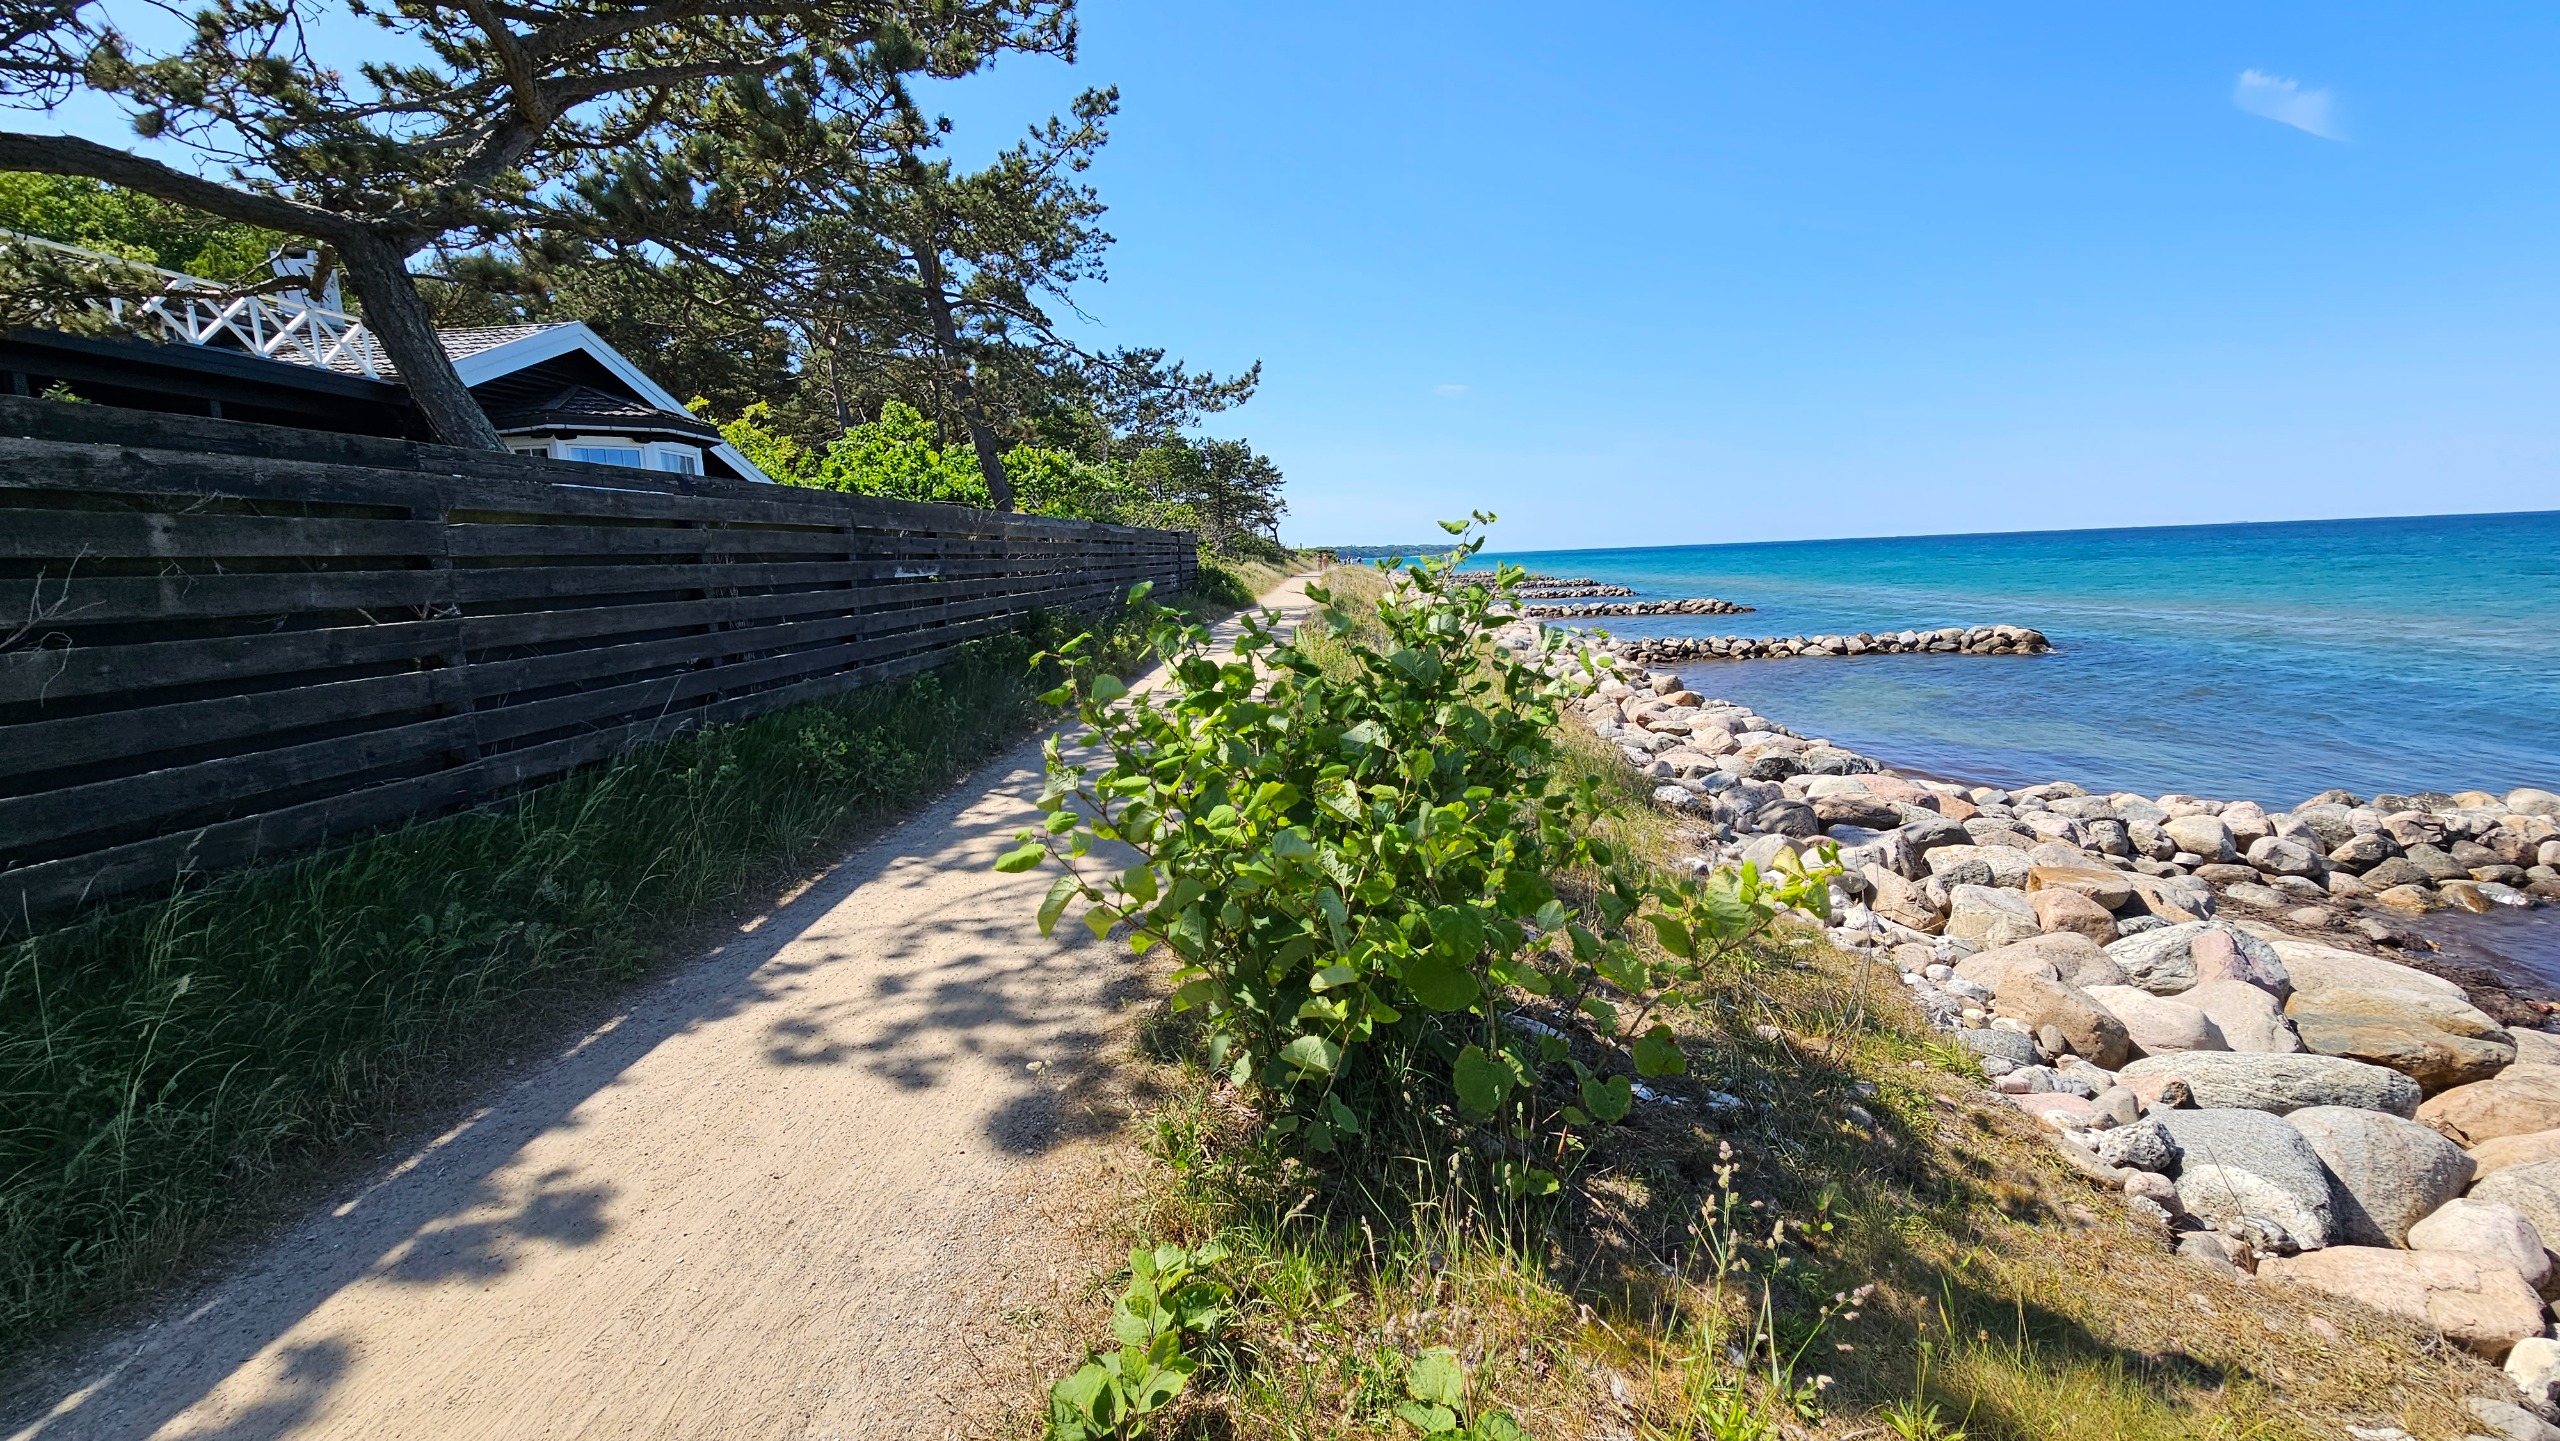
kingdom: Plantae
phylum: Tracheophyta
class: Magnoliopsida
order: Caryophyllales
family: Polygonaceae
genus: Reynoutria
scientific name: Reynoutria japonica
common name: Japan-pileurt
